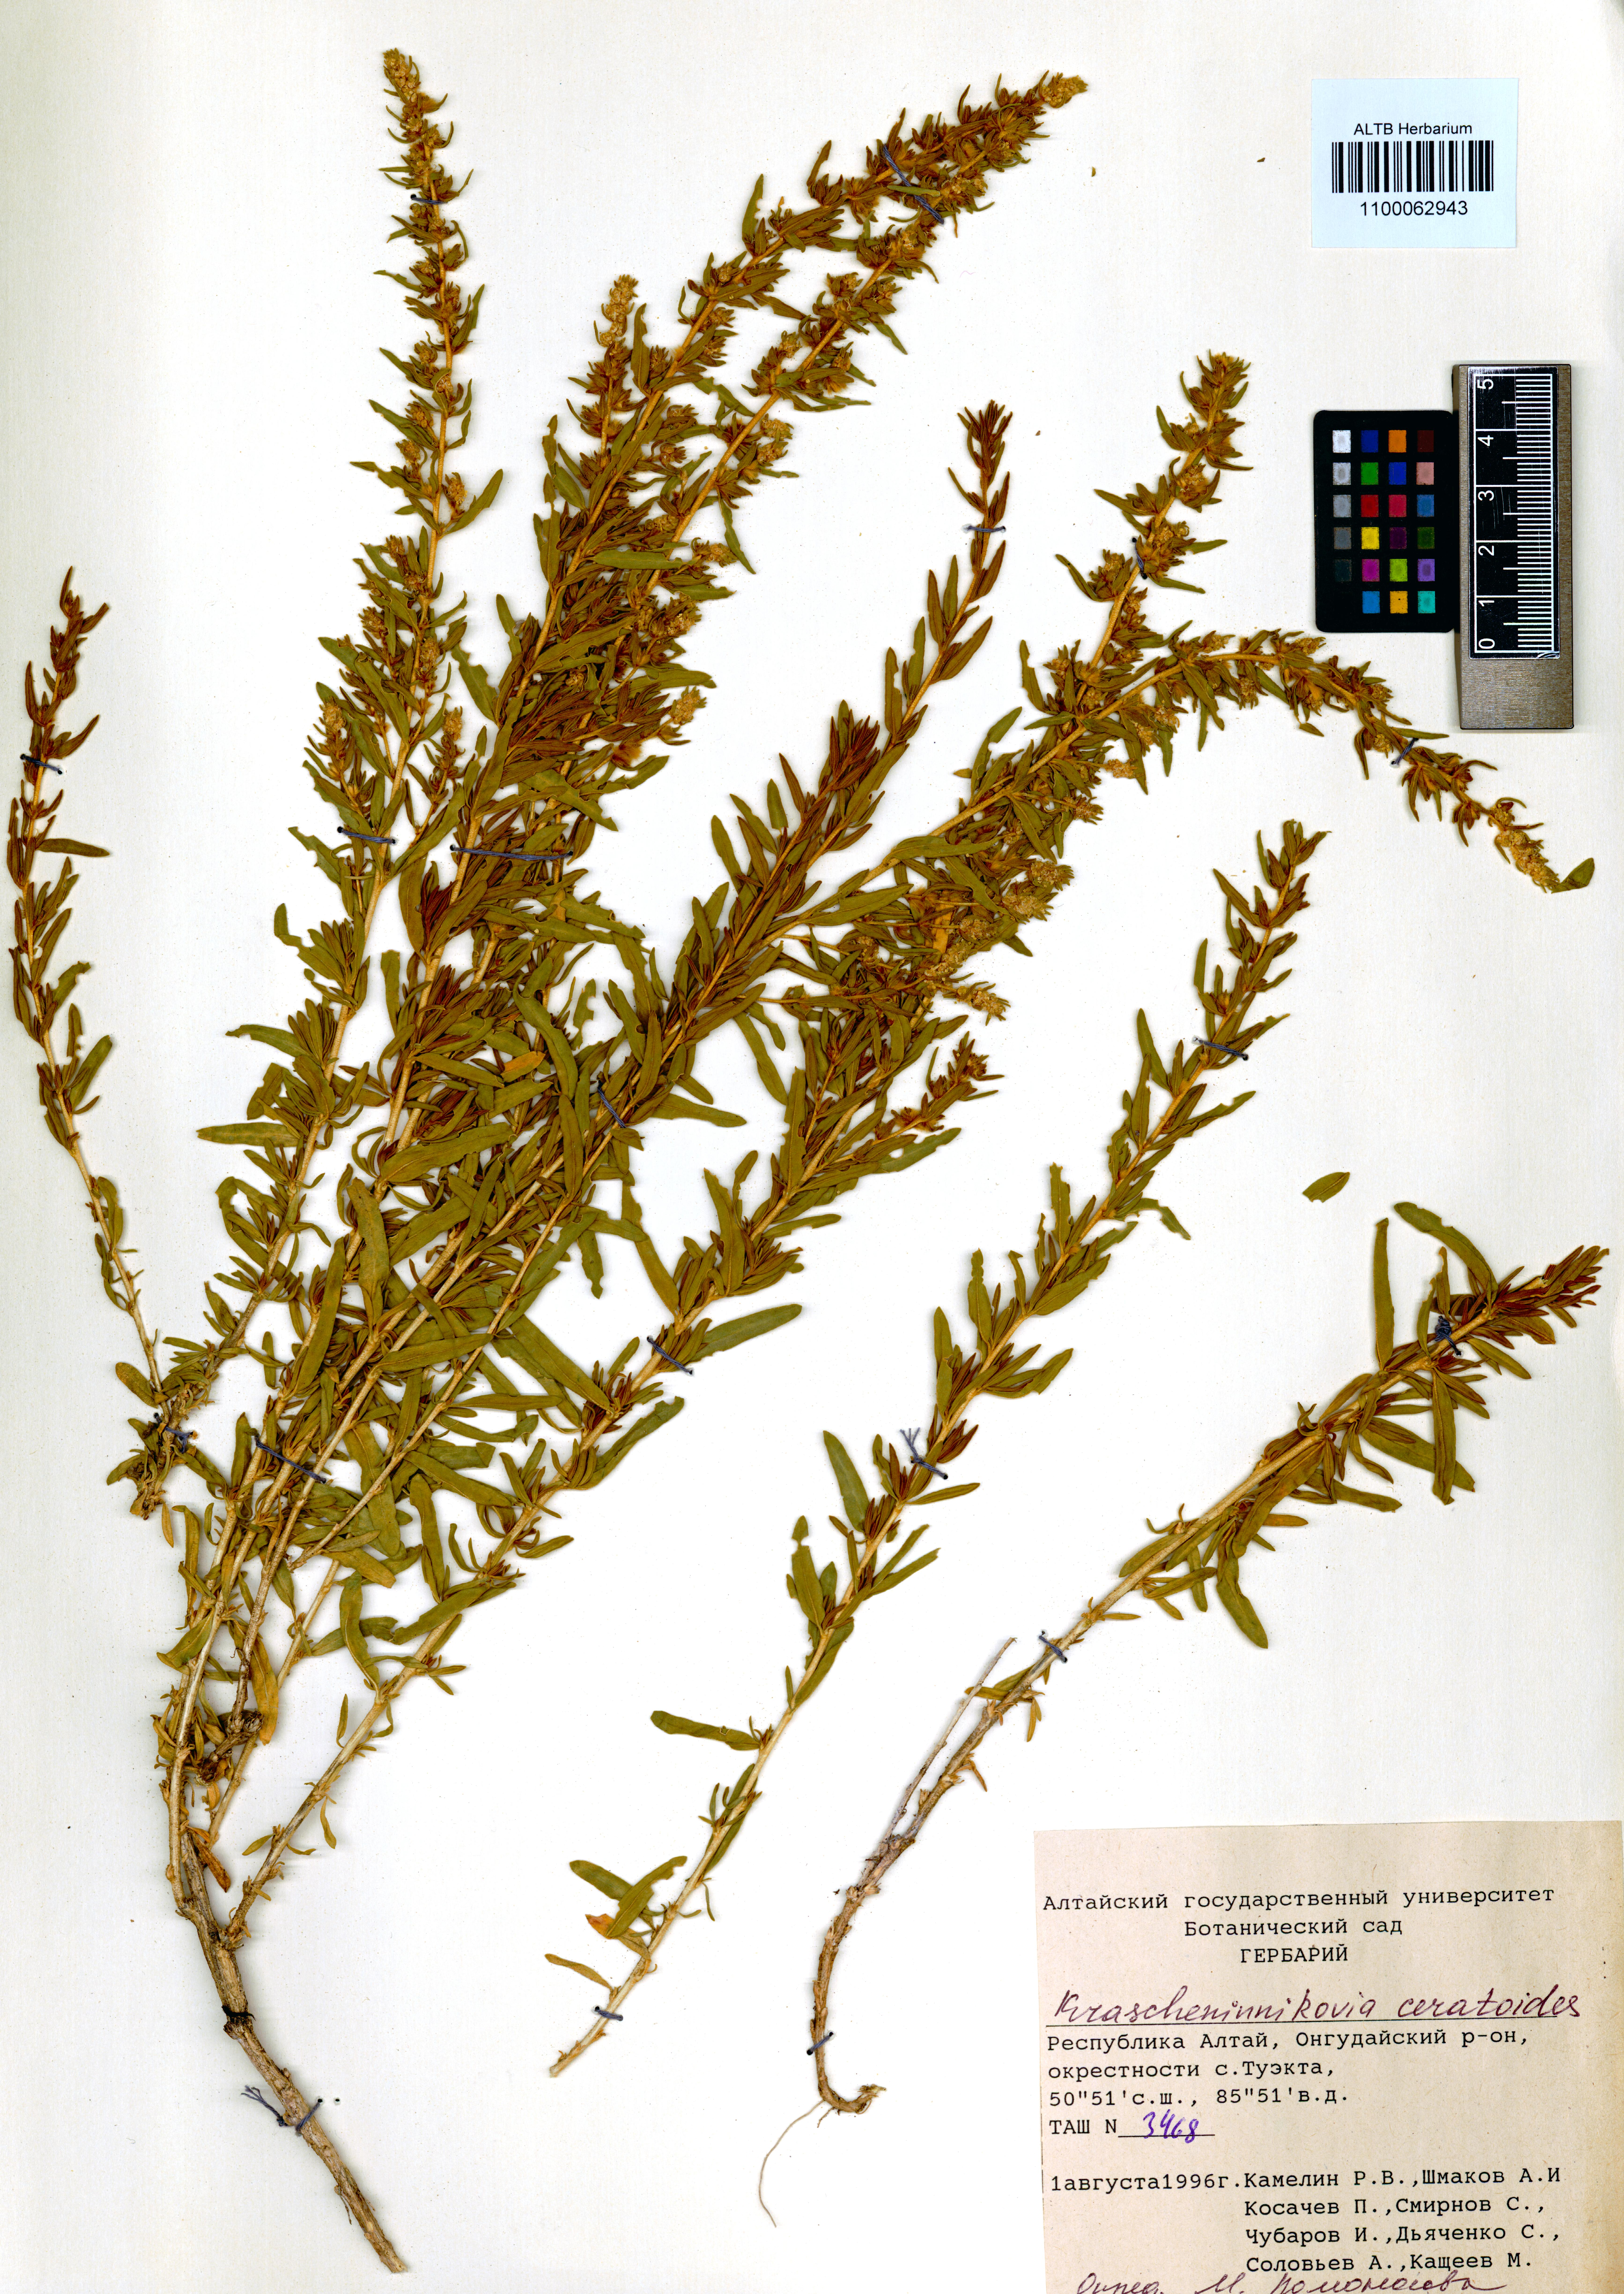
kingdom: Plantae
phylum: Tracheophyta
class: Magnoliopsida
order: Caryophyllales
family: Amaranthaceae
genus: Krascheninnikovia
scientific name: Krascheninnikovia ceratoides
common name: Pamirian winterfat
